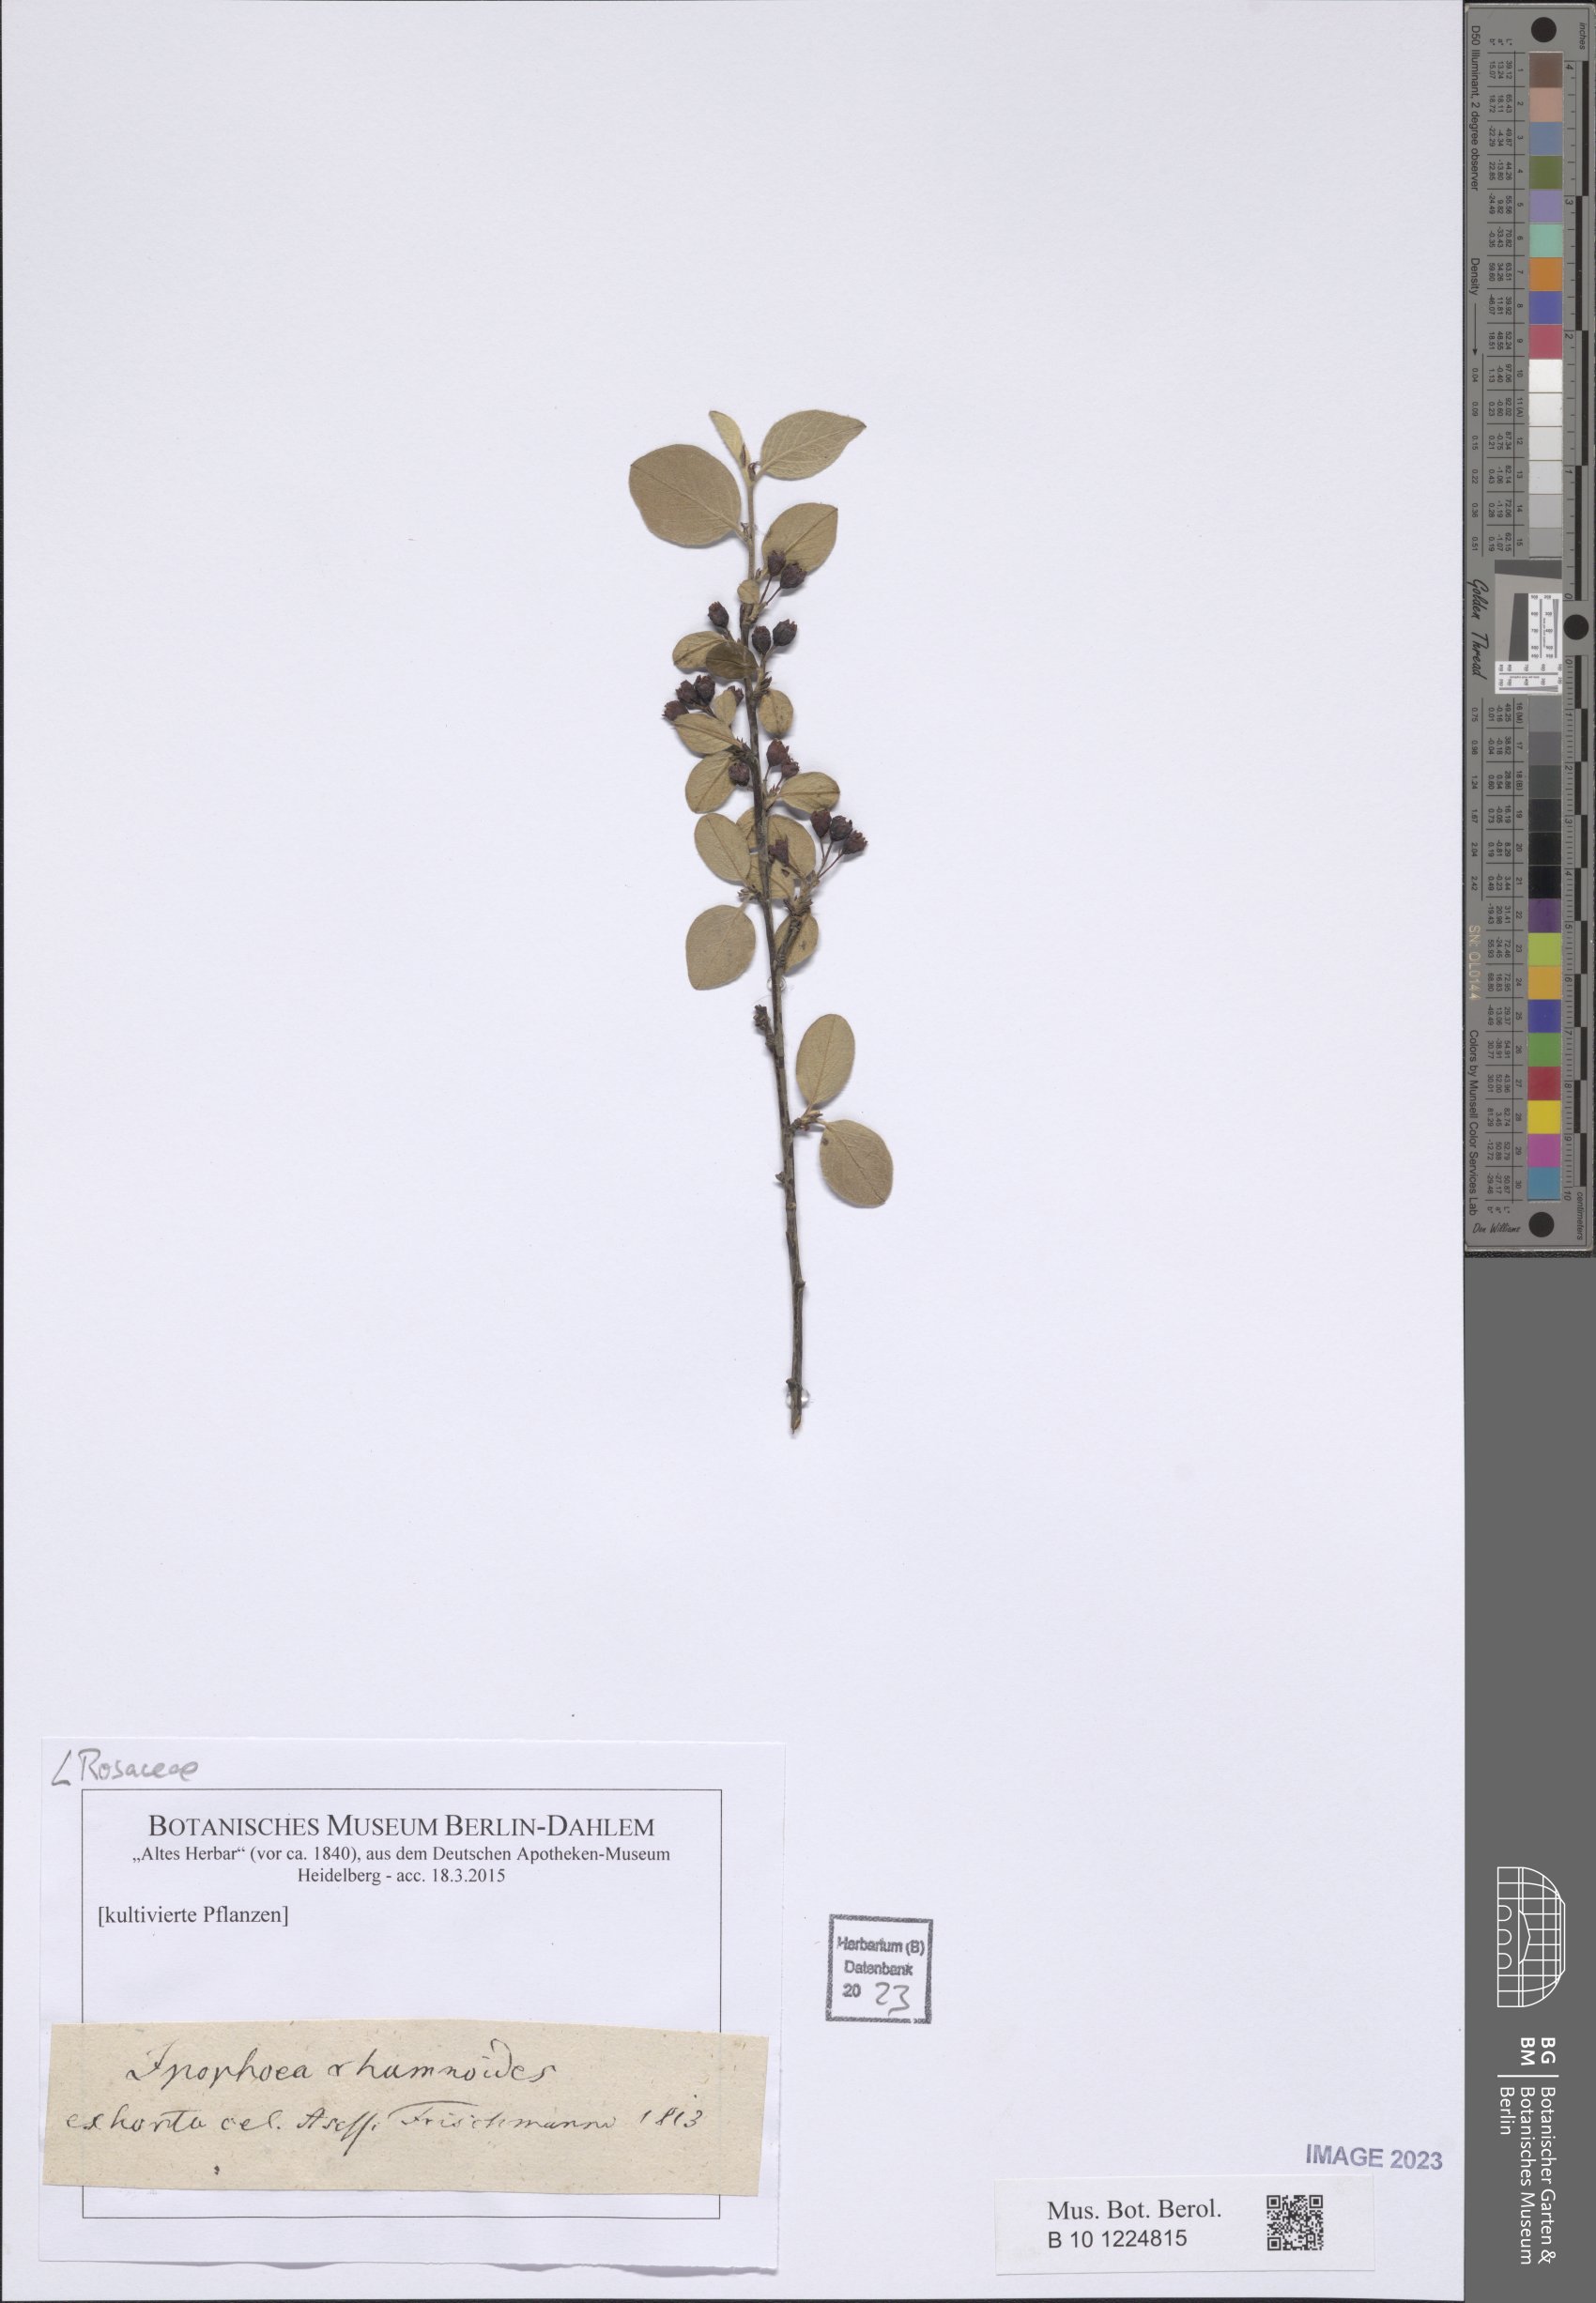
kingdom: Plantae
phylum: Tracheophyta
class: Magnoliopsida
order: Rosales
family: Rosaceae
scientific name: Rosaceae
